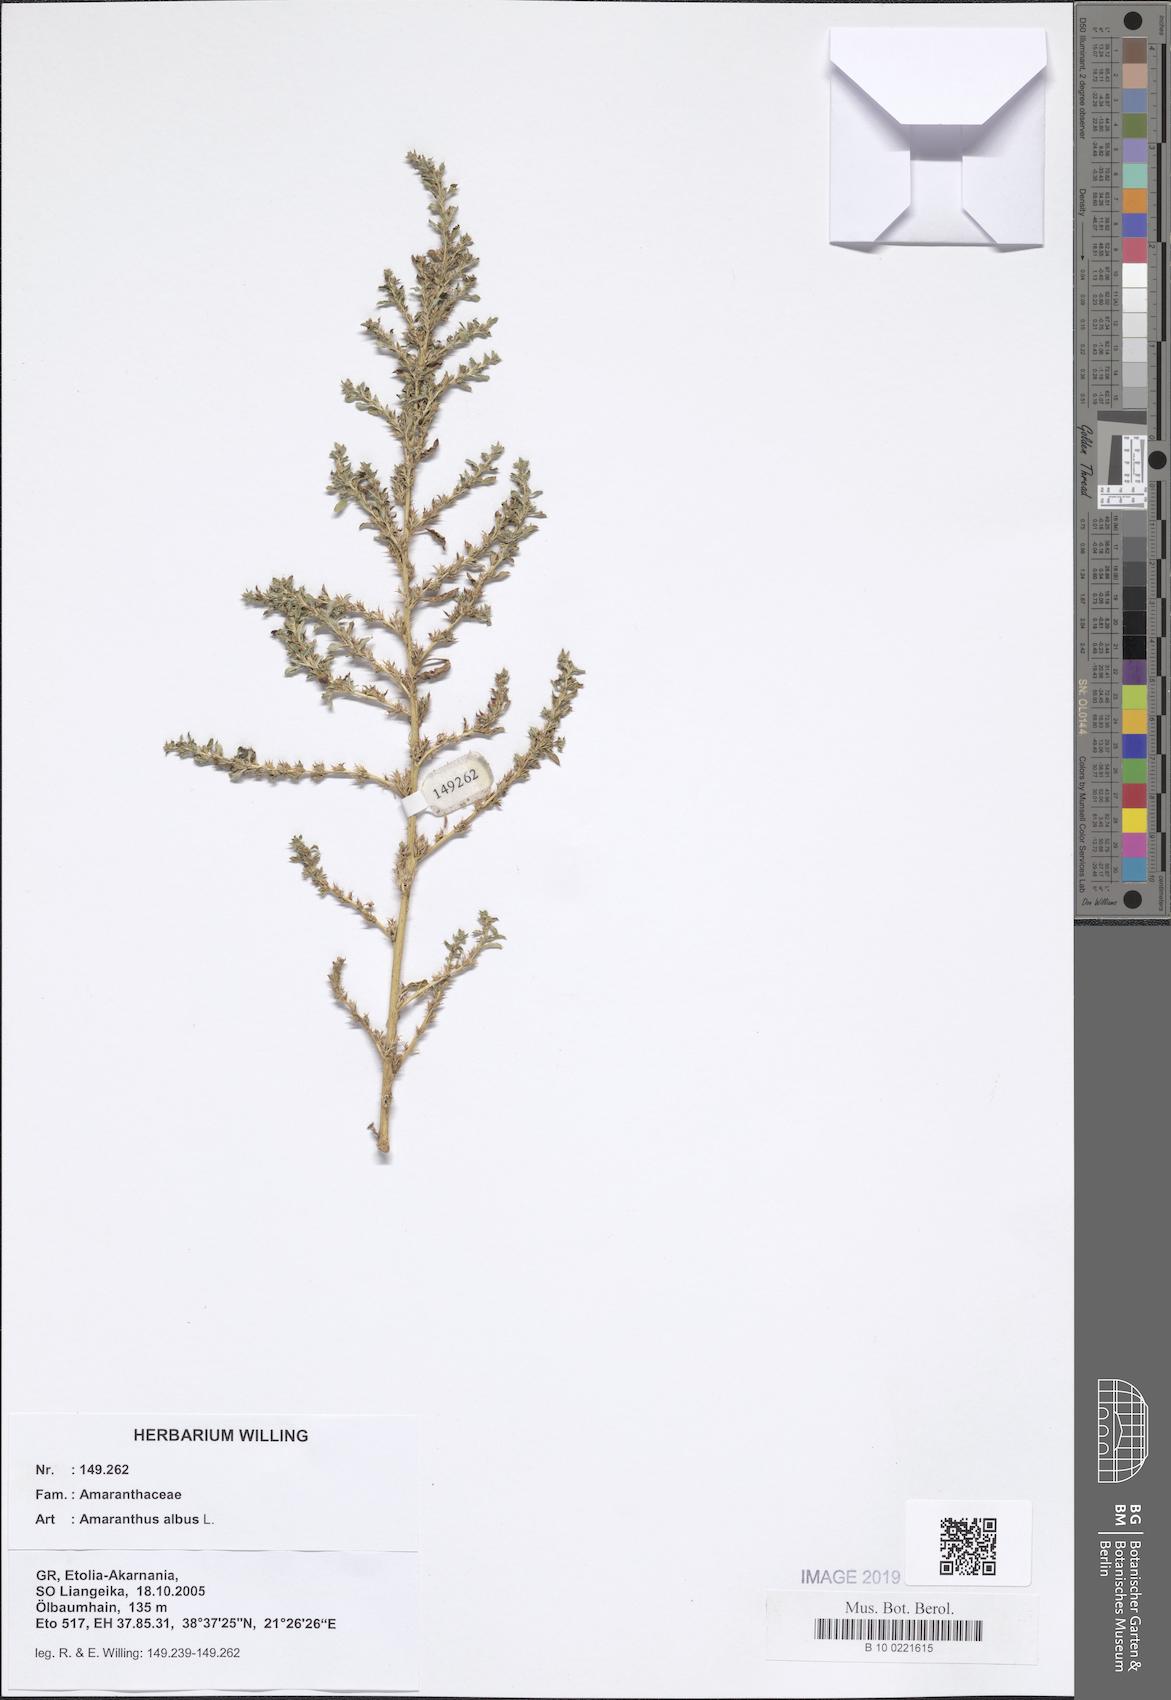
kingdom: Plantae
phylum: Tracheophyta
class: Magnoliopsida
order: Caryophyllales
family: Amaranthaceae
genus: Amaranthus
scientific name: Amaranthus albus
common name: White pigweed
